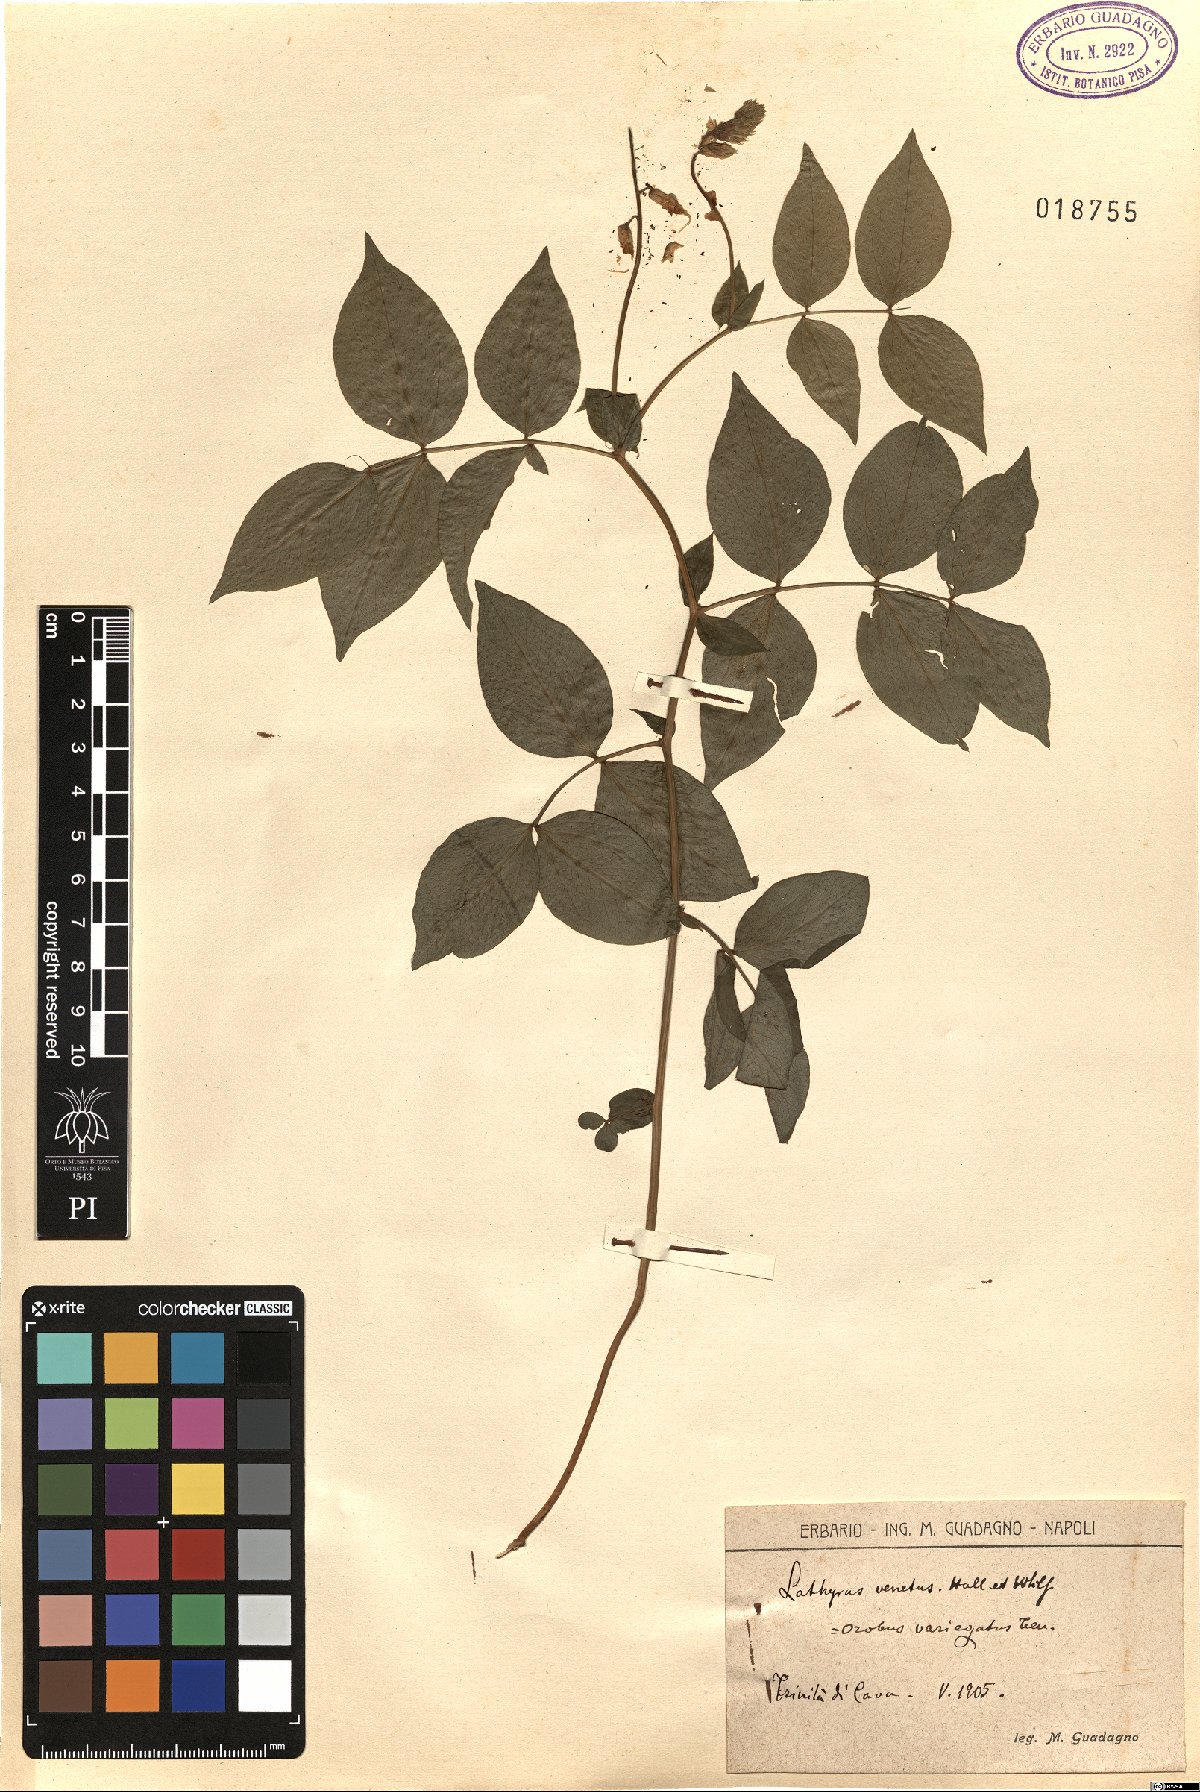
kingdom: Plantae
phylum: Tracheophyta
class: Magnoliopsida
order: Fabales
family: Fabaceae
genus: Lathyrus
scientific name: Lathyrus venetus
